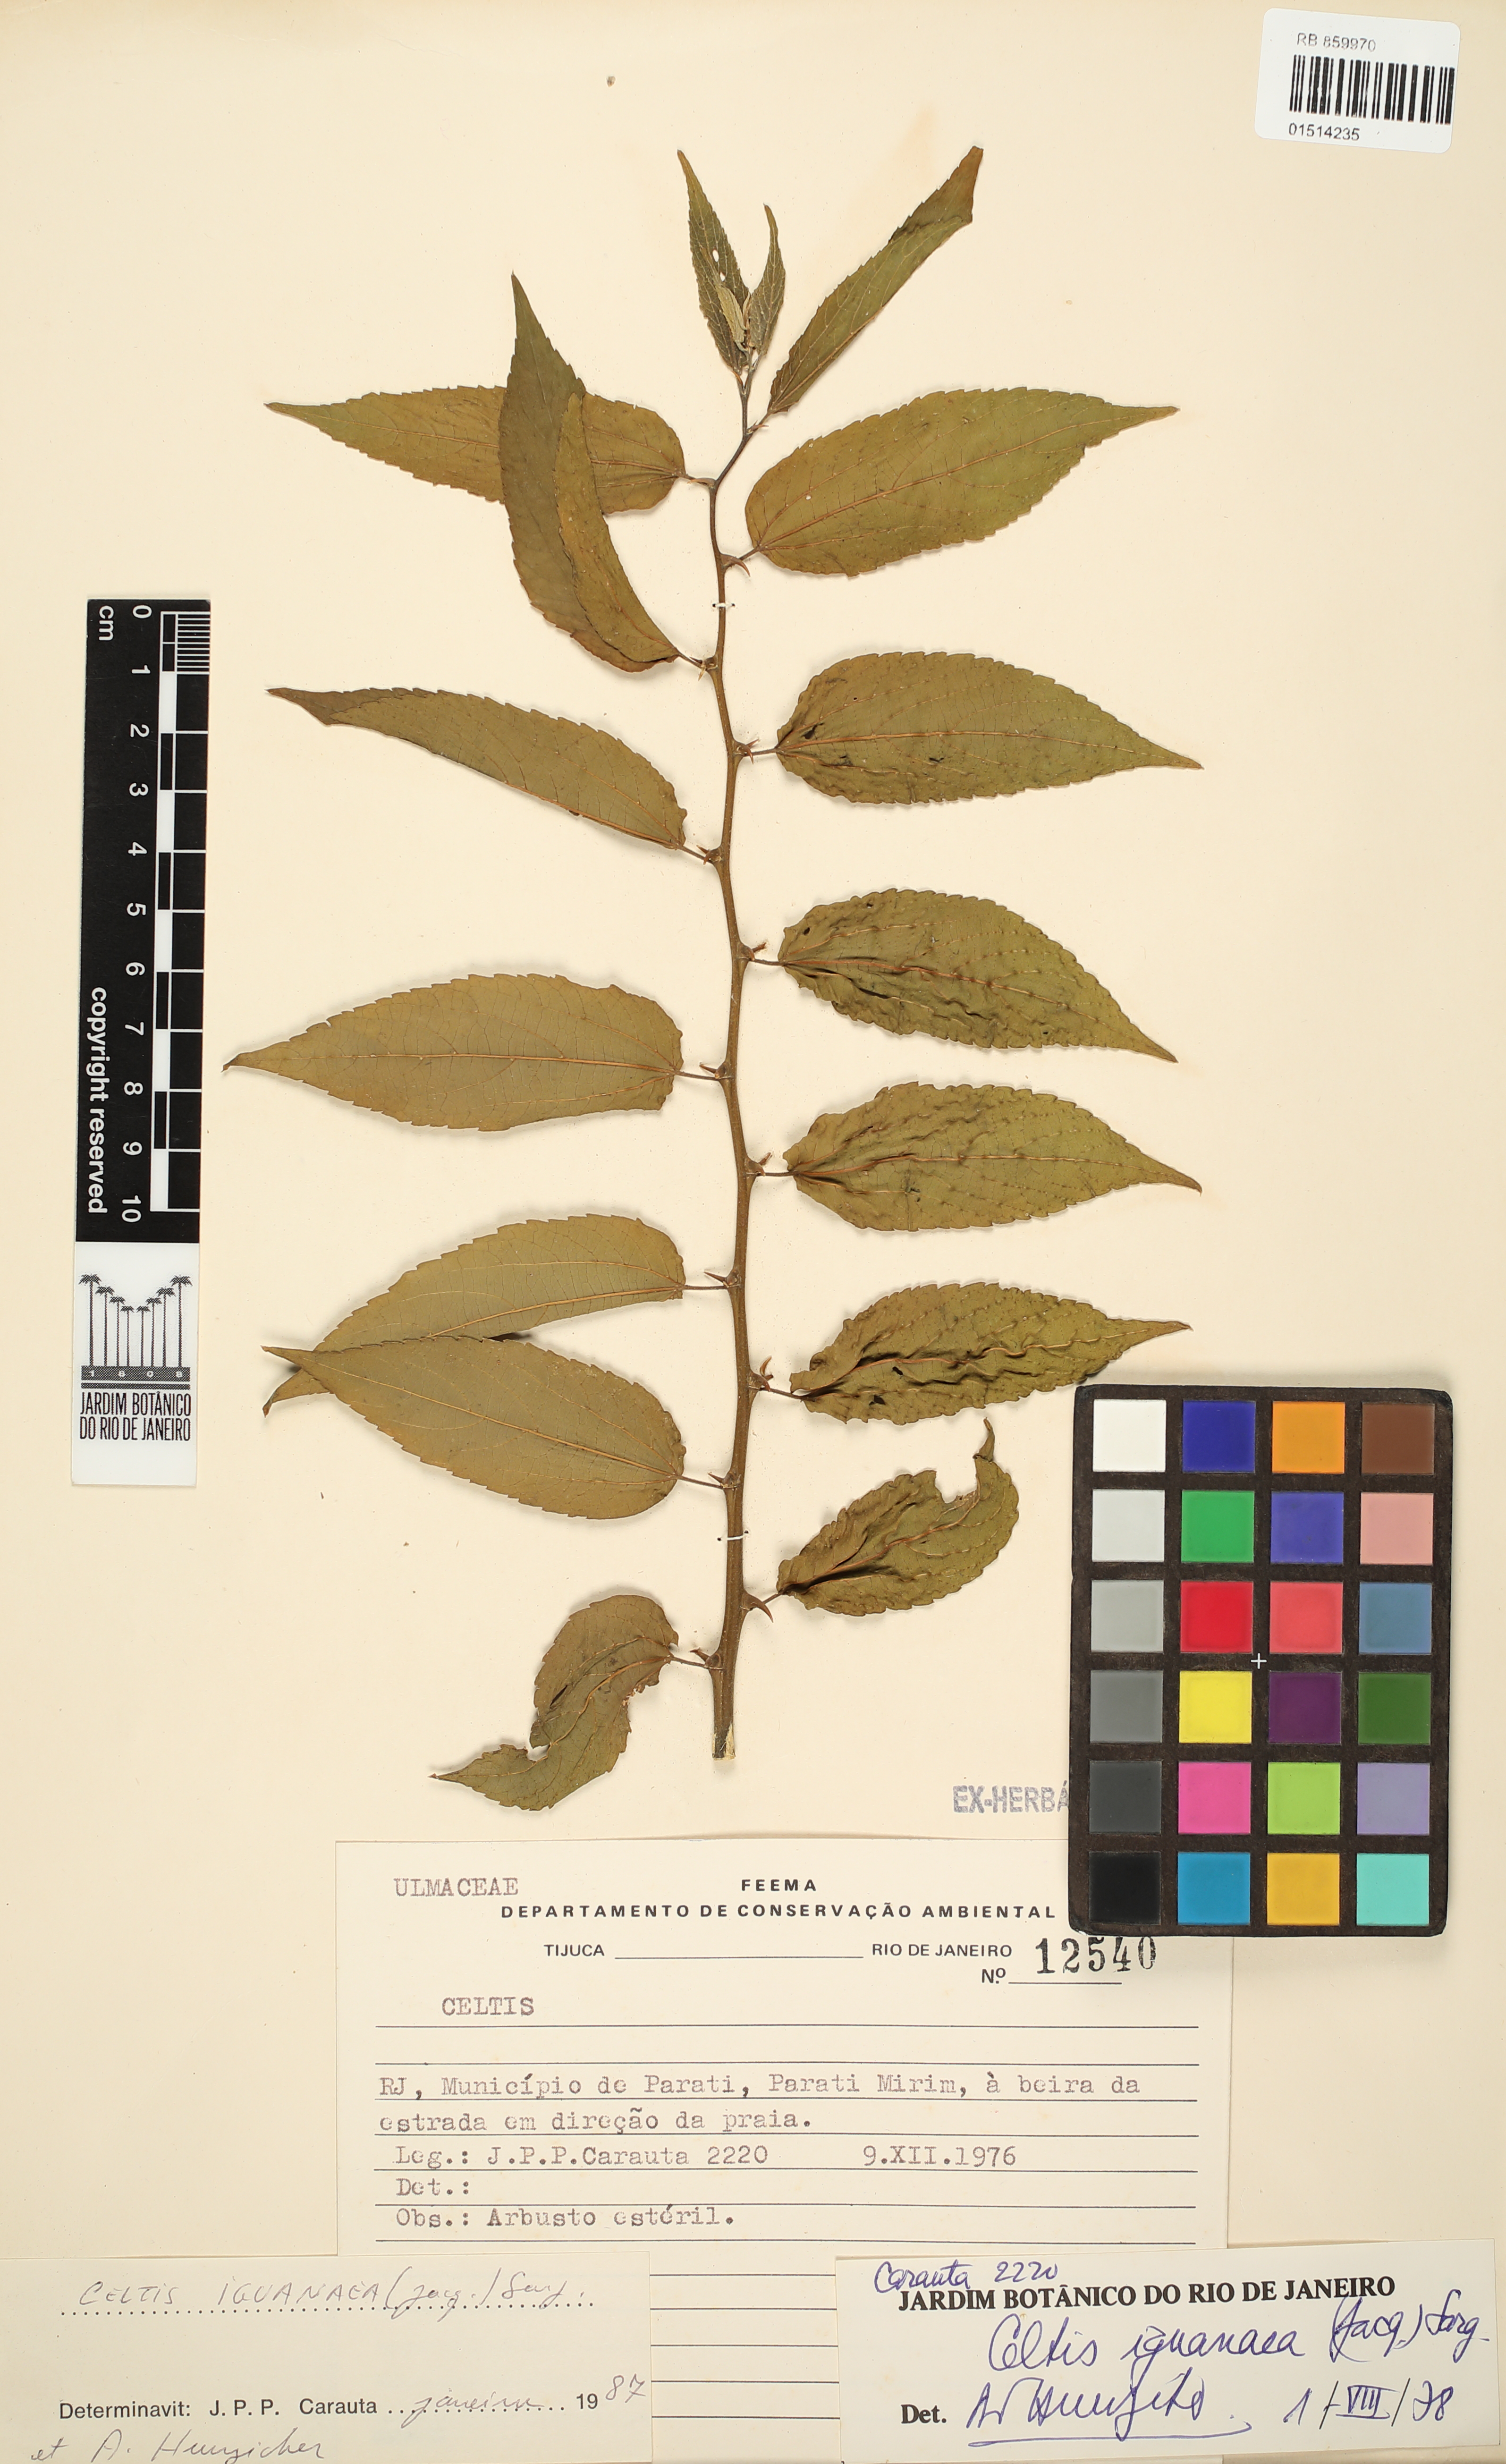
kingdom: Plantae
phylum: Tracheophyta
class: Magnoliopsida
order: Rosales
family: Cannabaceae
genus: Celtis
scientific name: Celtis iguanaea
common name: Iguana hackberry
